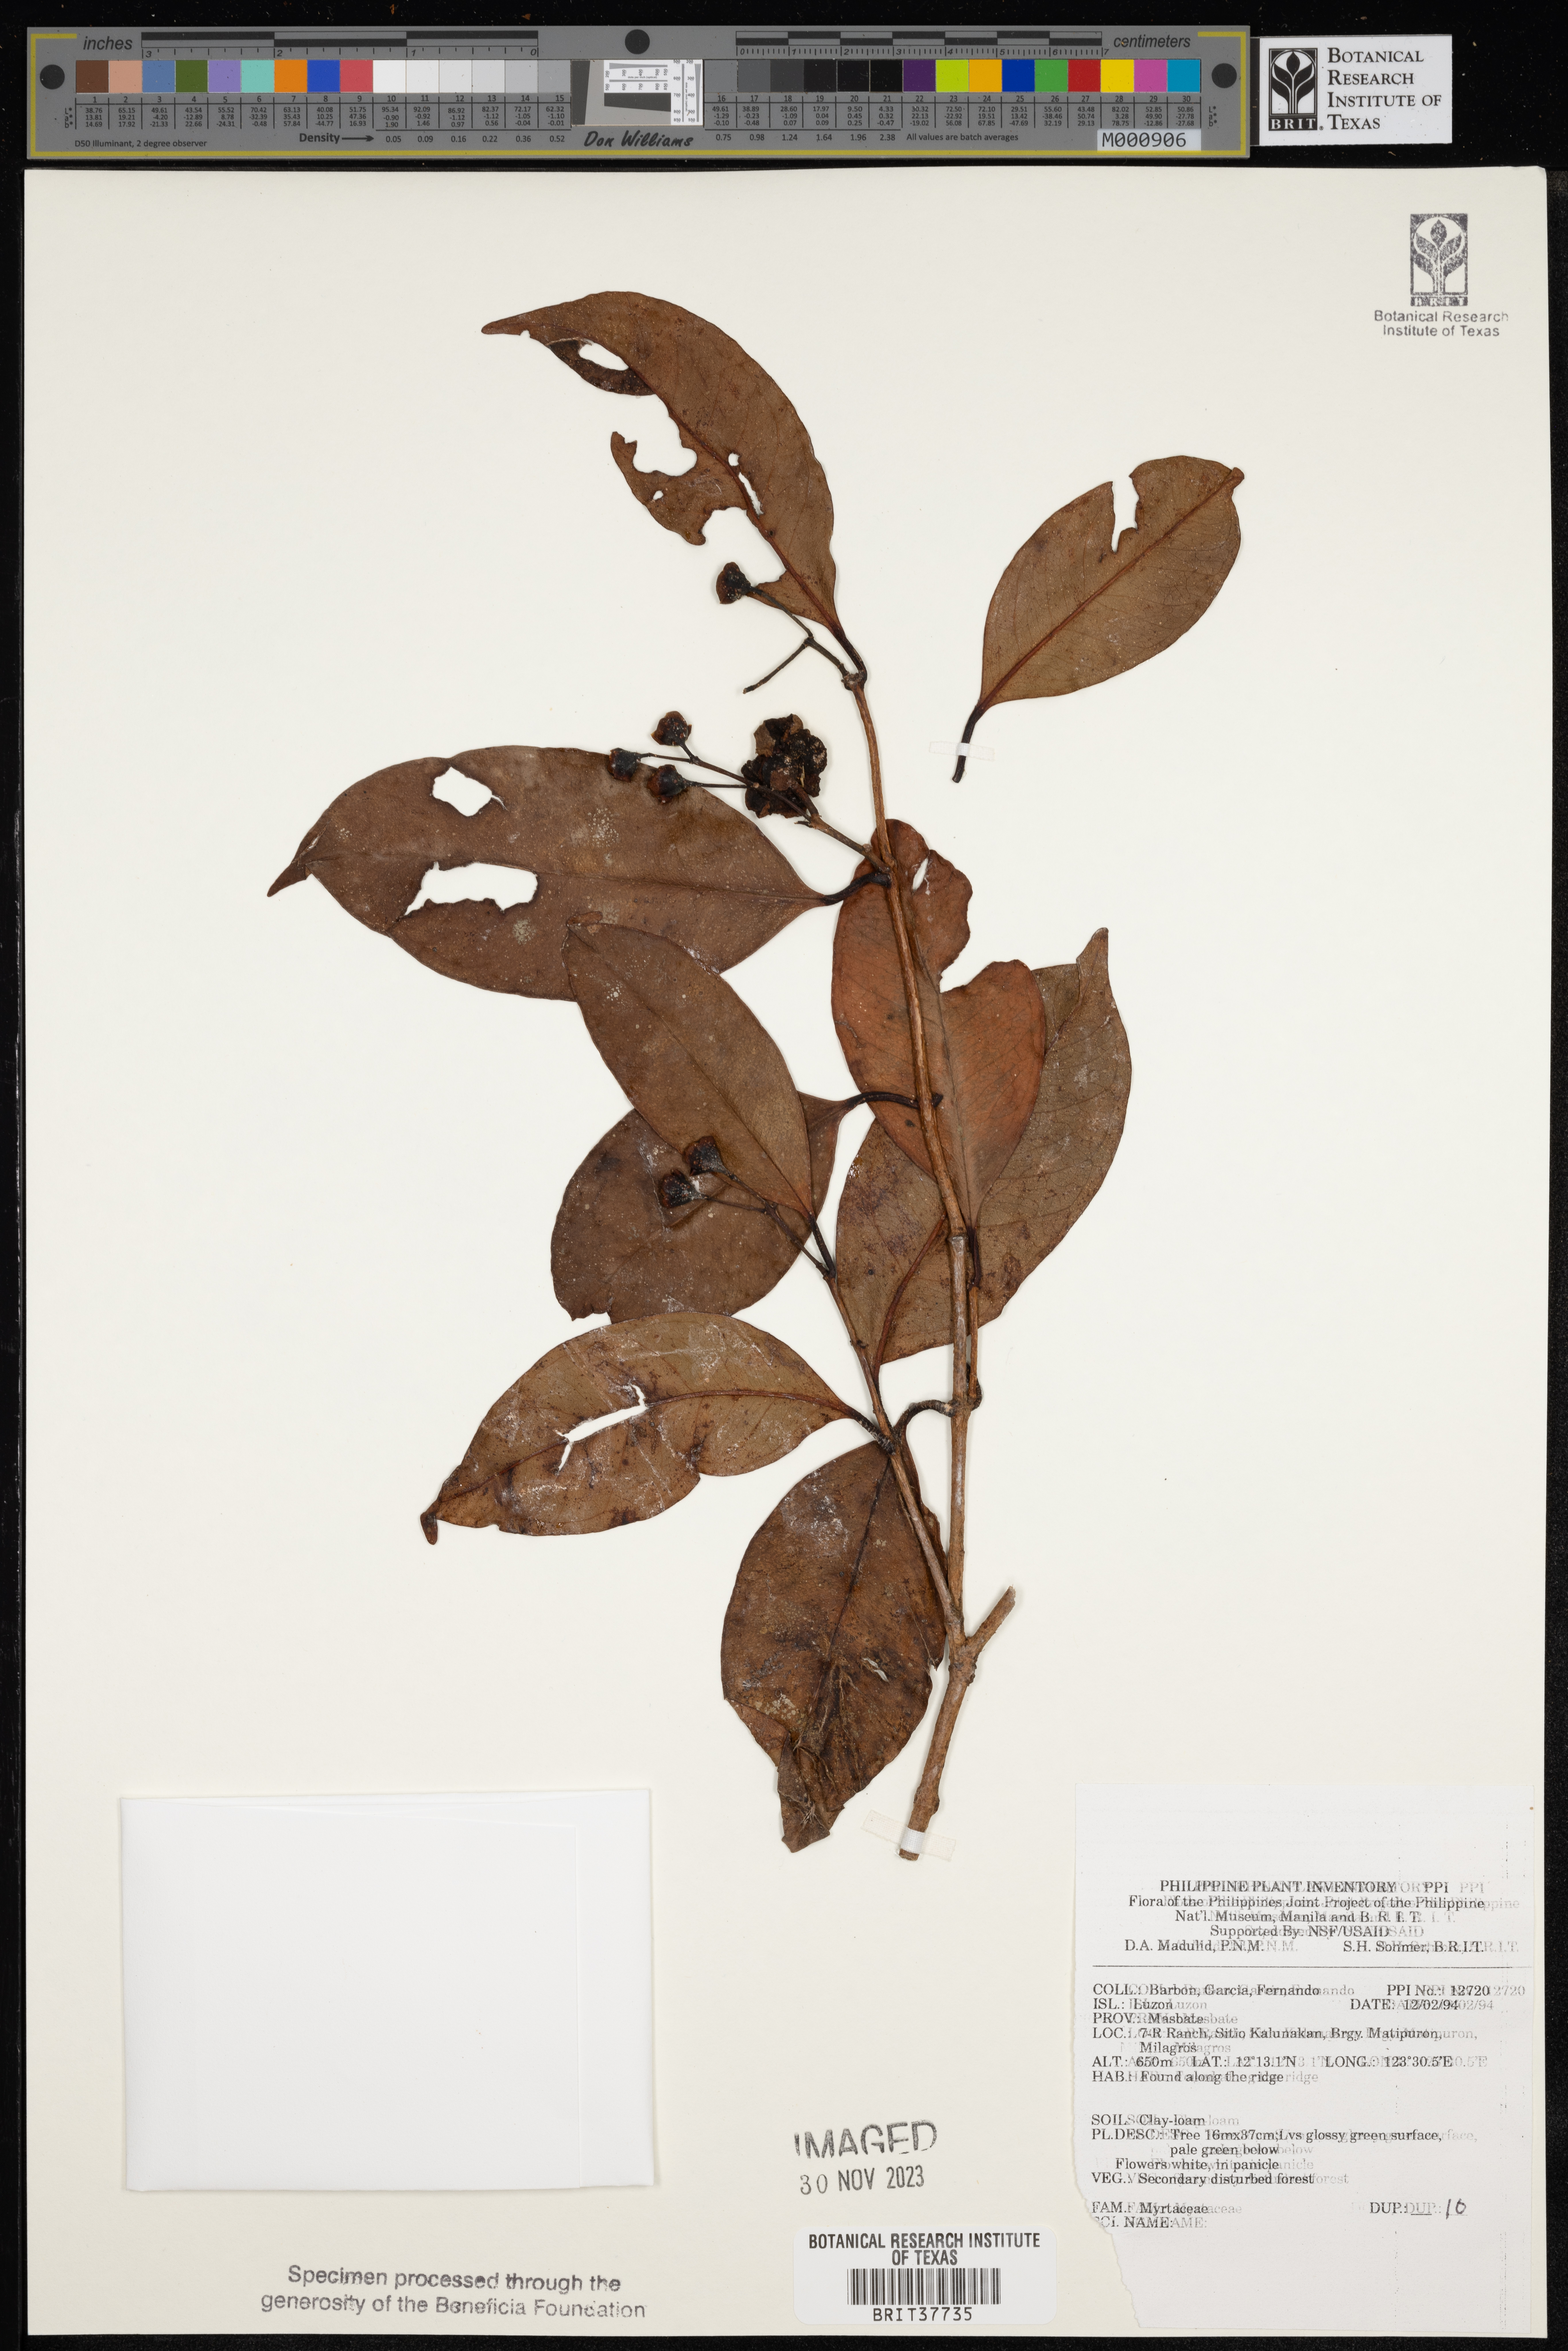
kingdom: Plantae
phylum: Tracheophyta
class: Magnoliopsida
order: Myrtales
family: Myrtaceae
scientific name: Myrtaceae
